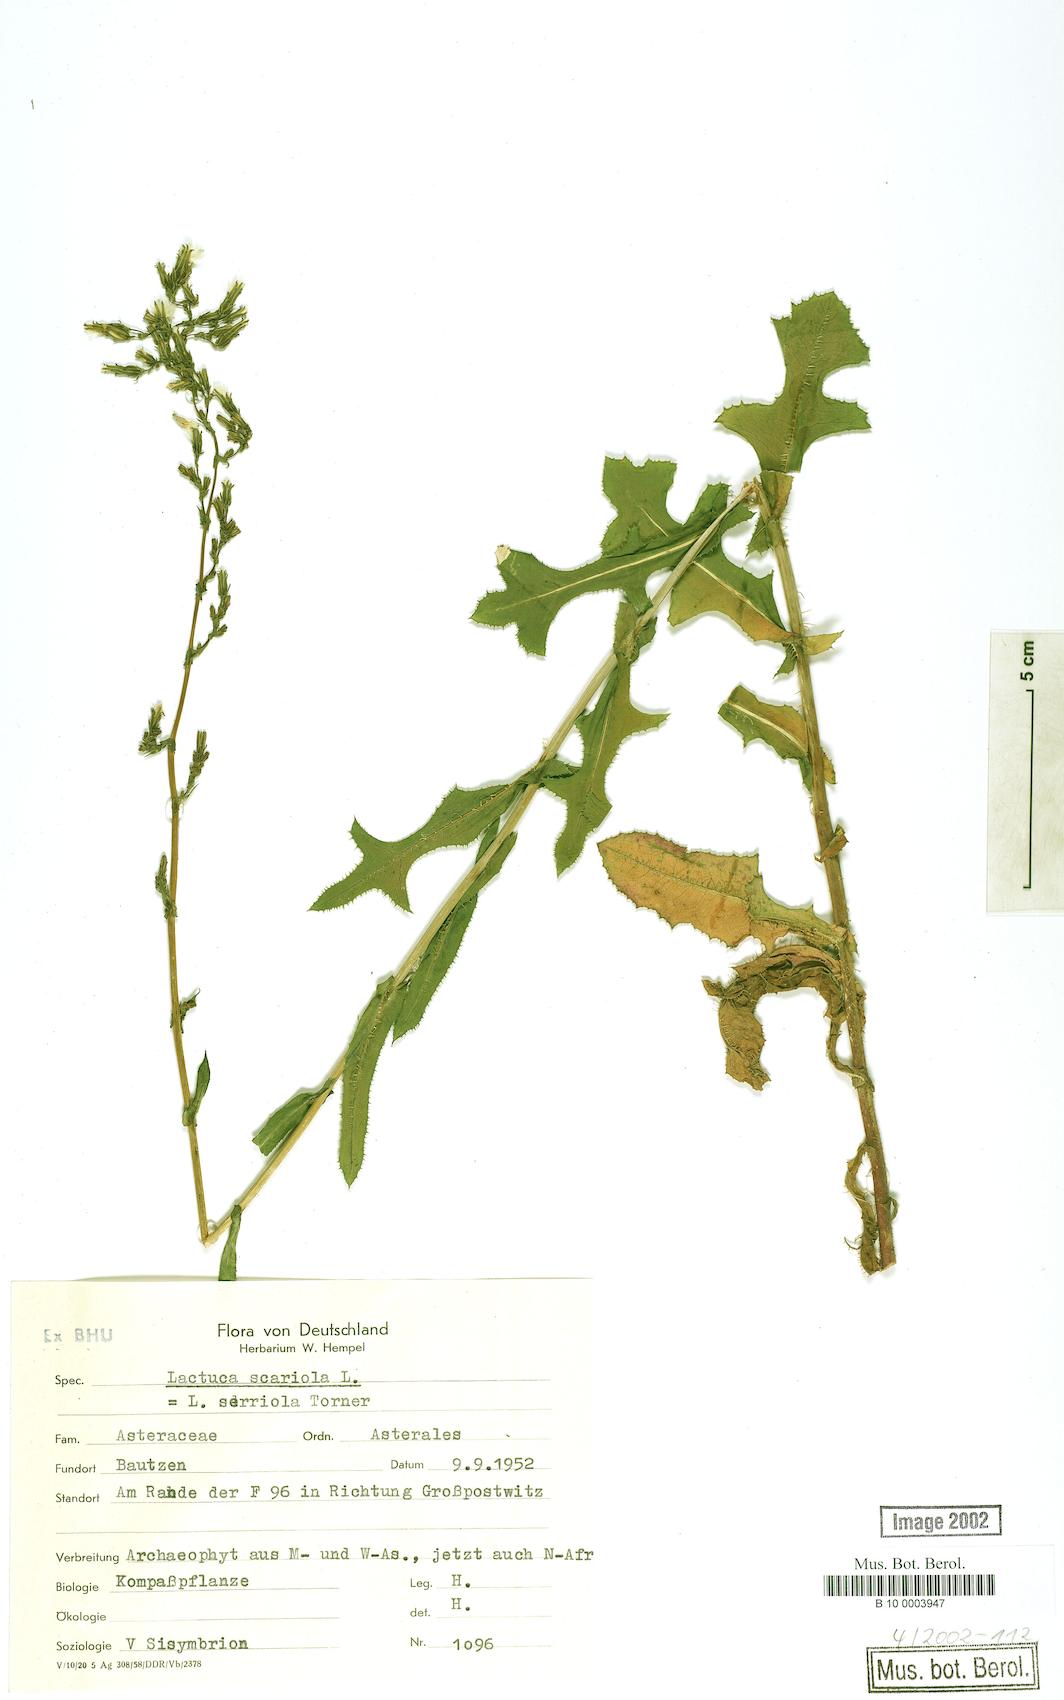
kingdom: Plantae
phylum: Tracheophyta
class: Magnoliopsida
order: Asterales
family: Asteraceae
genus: Lactuca
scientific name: Lactuca serriola
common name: Prickly lettuce
